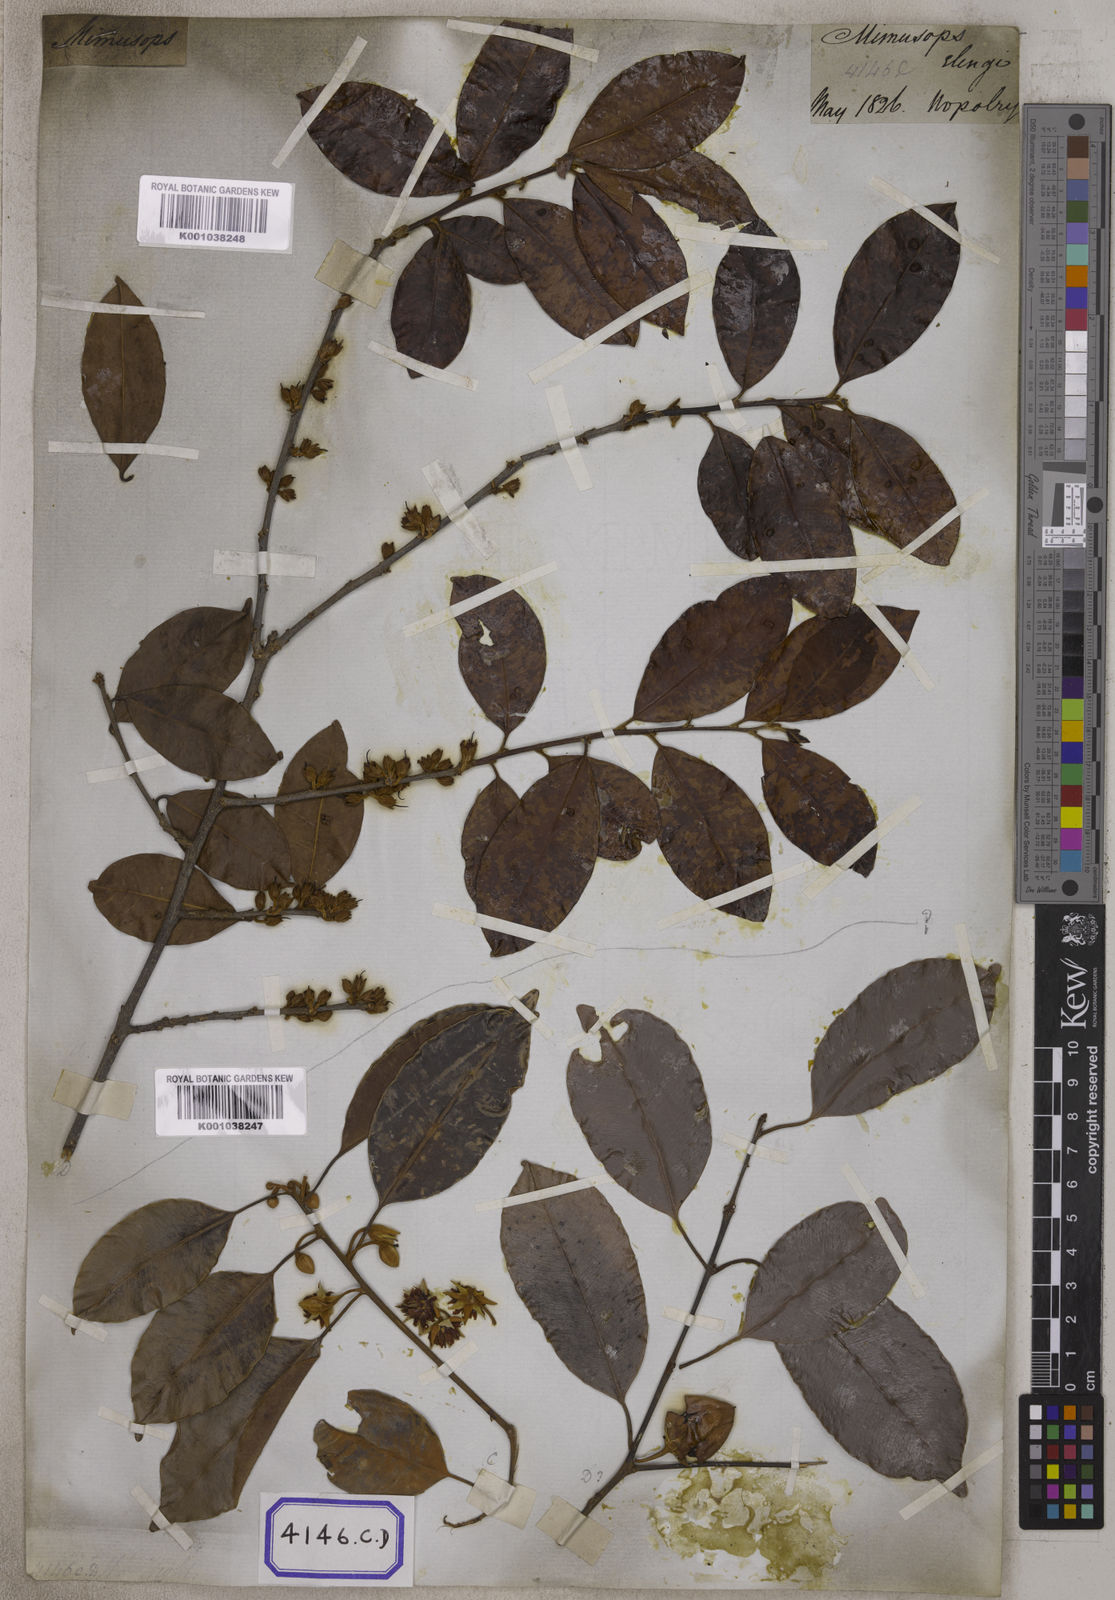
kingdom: Plantae
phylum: Tracheophyta
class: Magnoliopsida
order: Ericales
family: Sapotaceae
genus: Mimusops
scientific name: Mimusops
